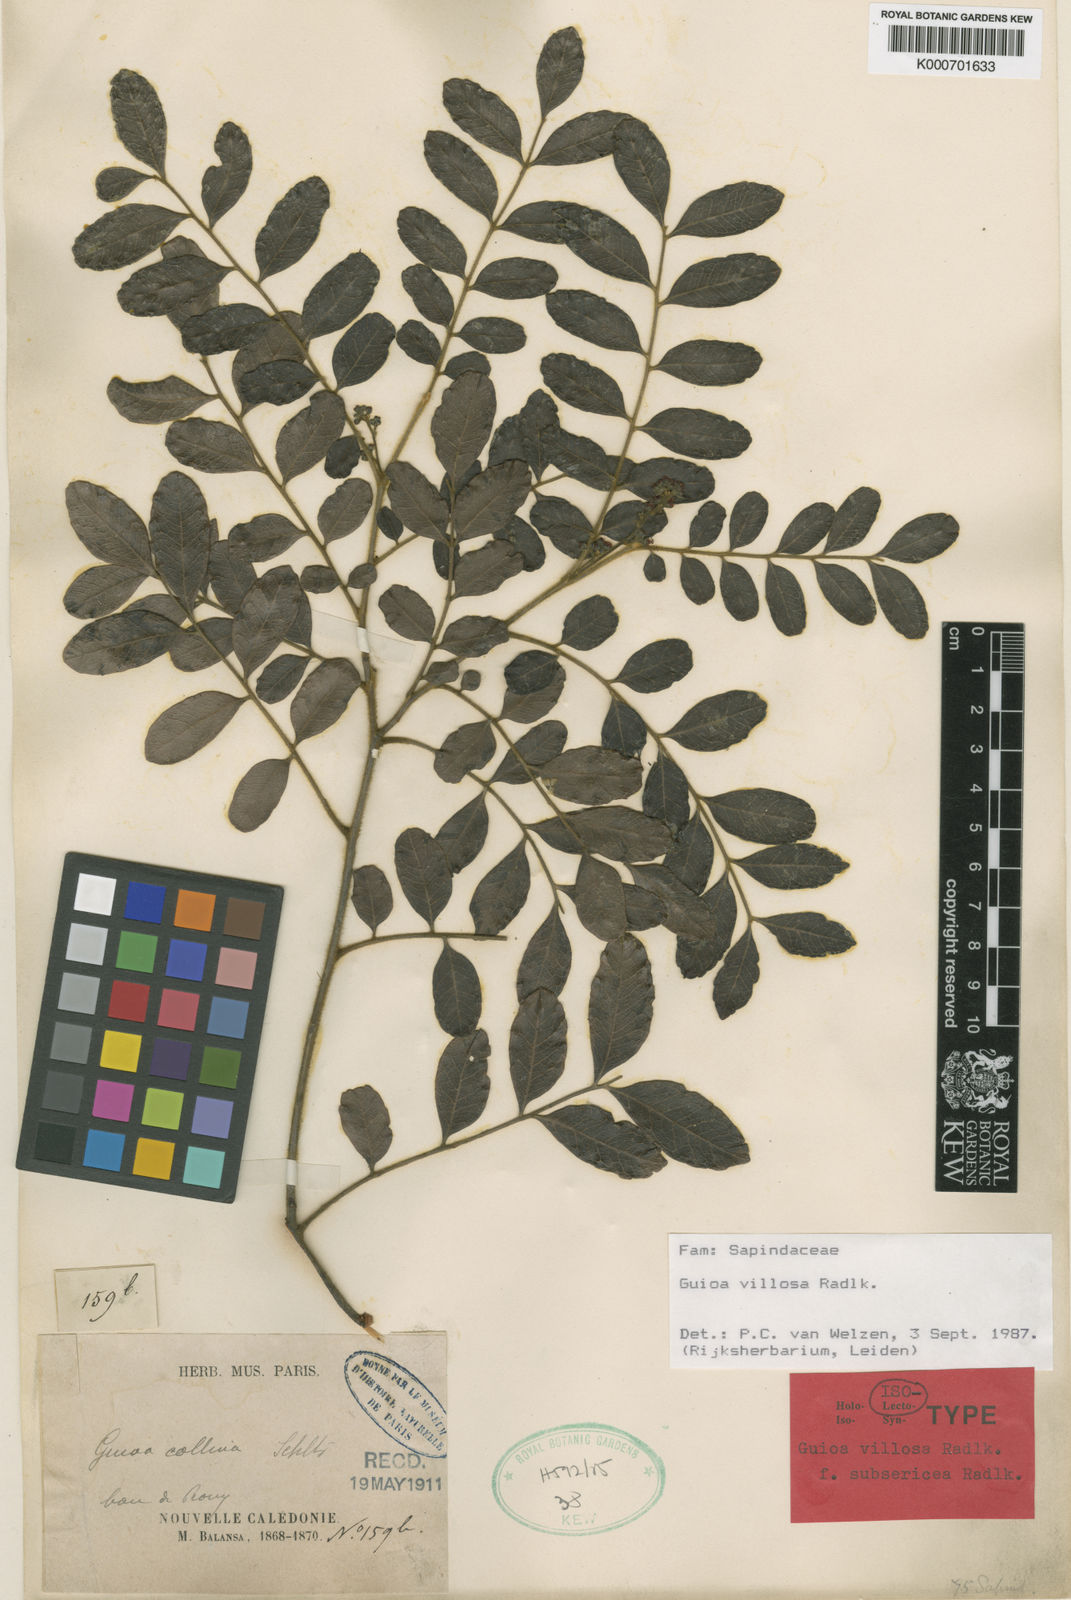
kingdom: Plantae
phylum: Tracheophyta
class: Magnoliopsida
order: Sapindales
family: Sapindaceae
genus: Guioa
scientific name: Guioa villosa
